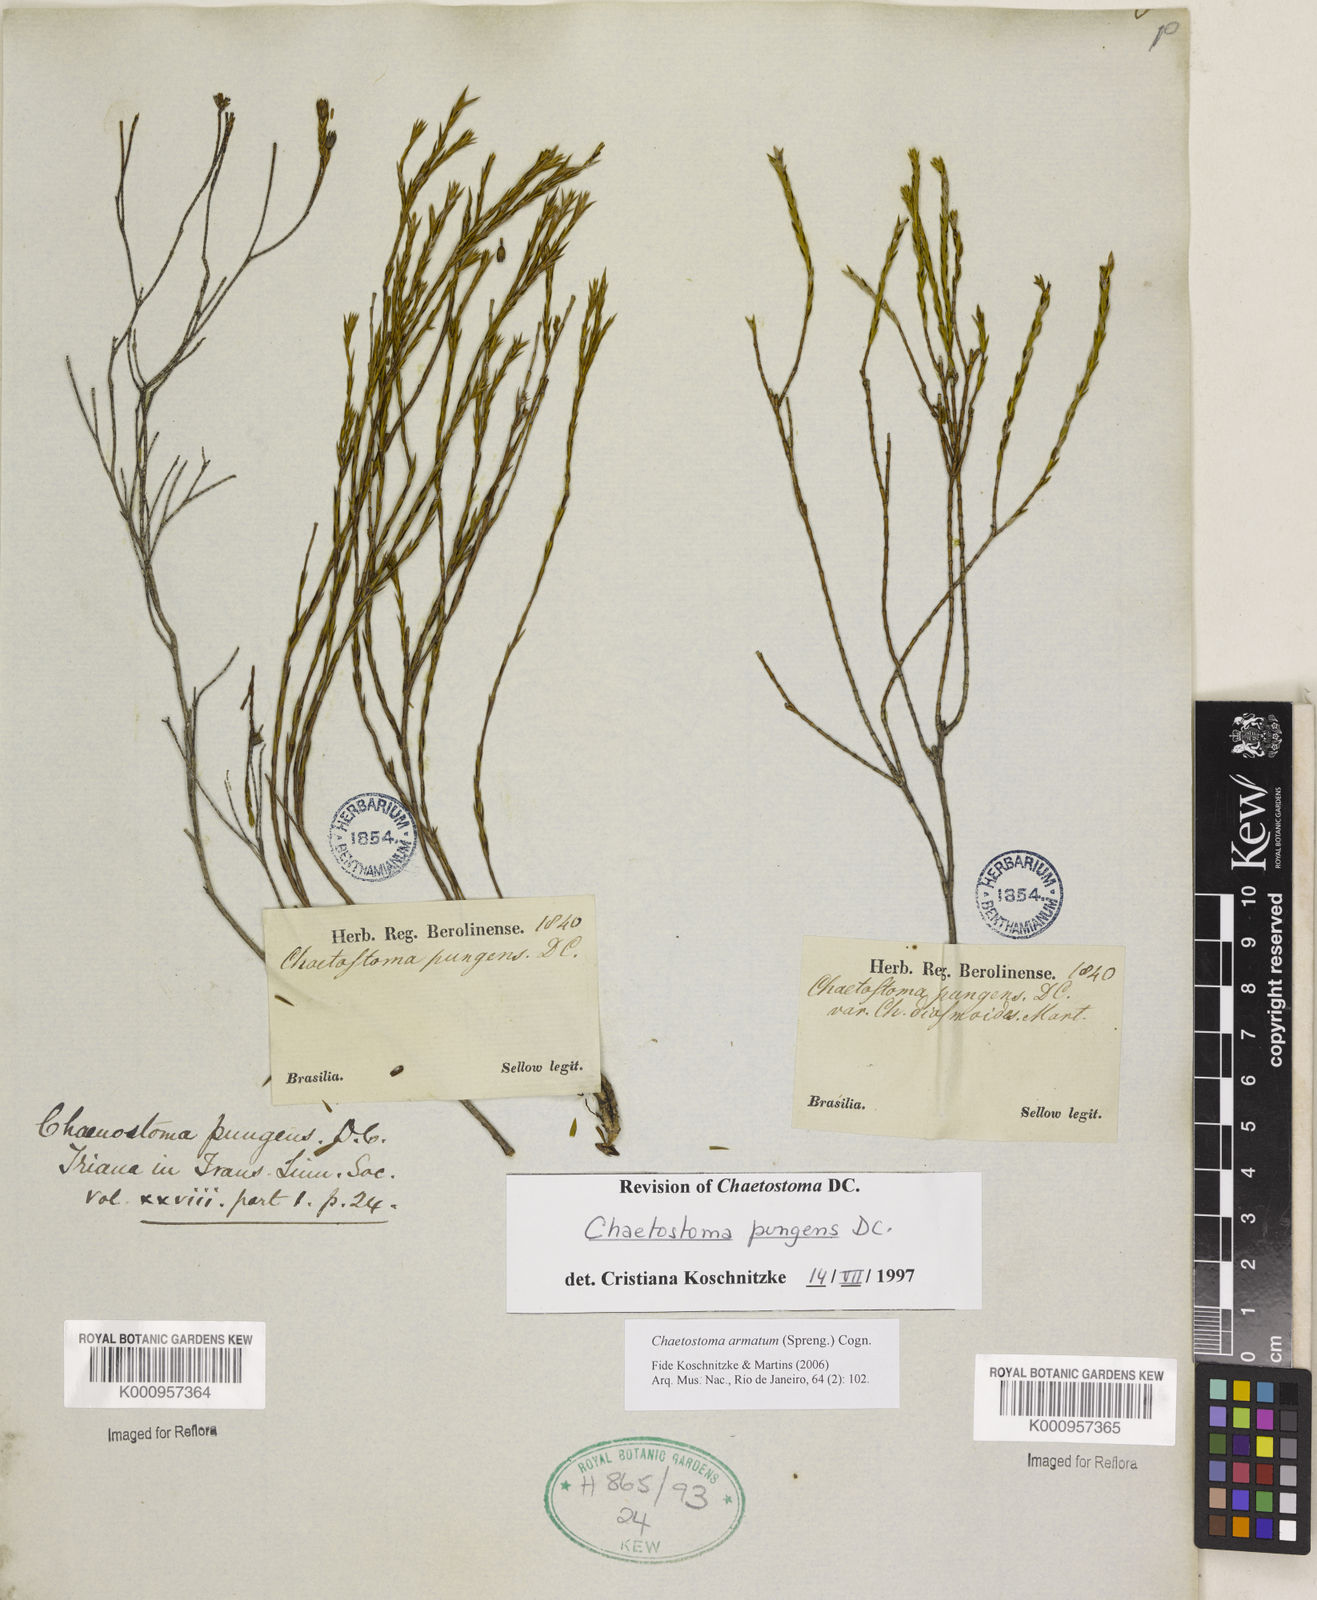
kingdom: Plantae
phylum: Tracheophyta
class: Magnoliopsida
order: Myrtales
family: Melastomataceae
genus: Microlicia
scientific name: Microlicia armata
